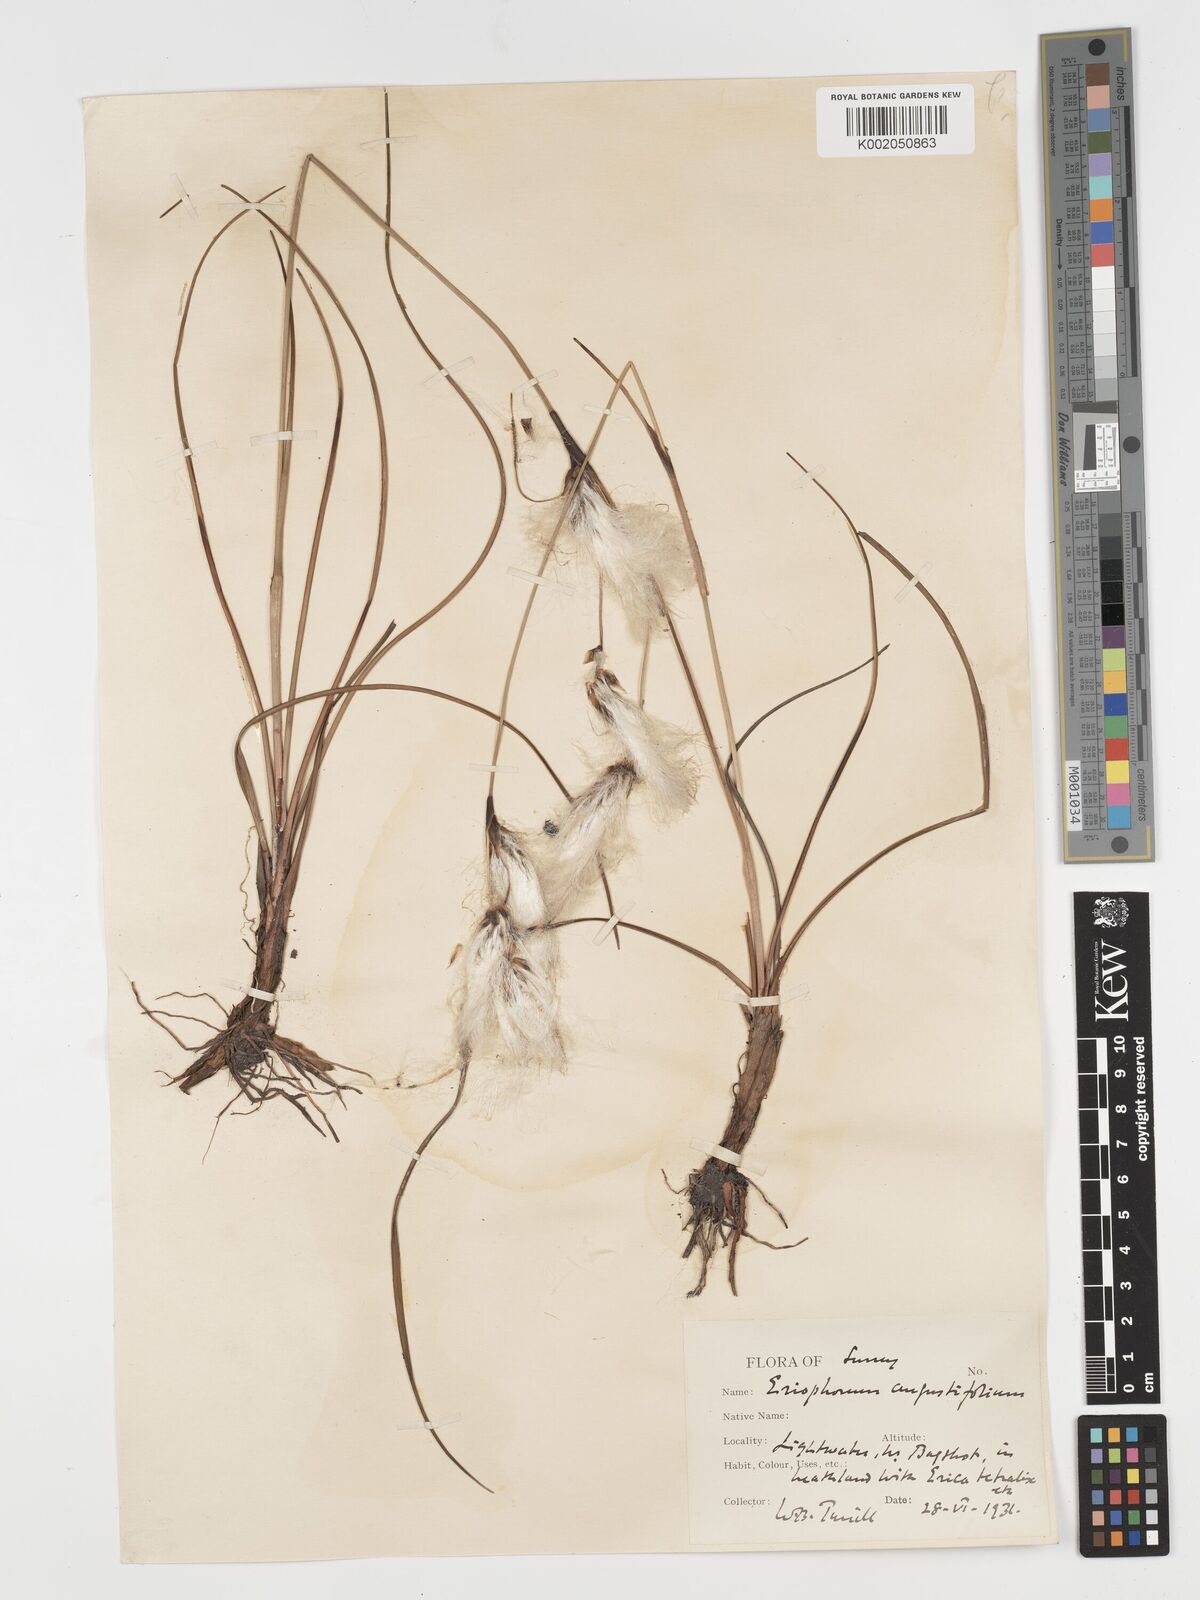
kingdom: Plantae
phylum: Tracheophyta
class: Liliopsida
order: Poales
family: Cyperaceae
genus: Eriophorum
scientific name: Eriophorum angustifolium
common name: Common cottongrass
